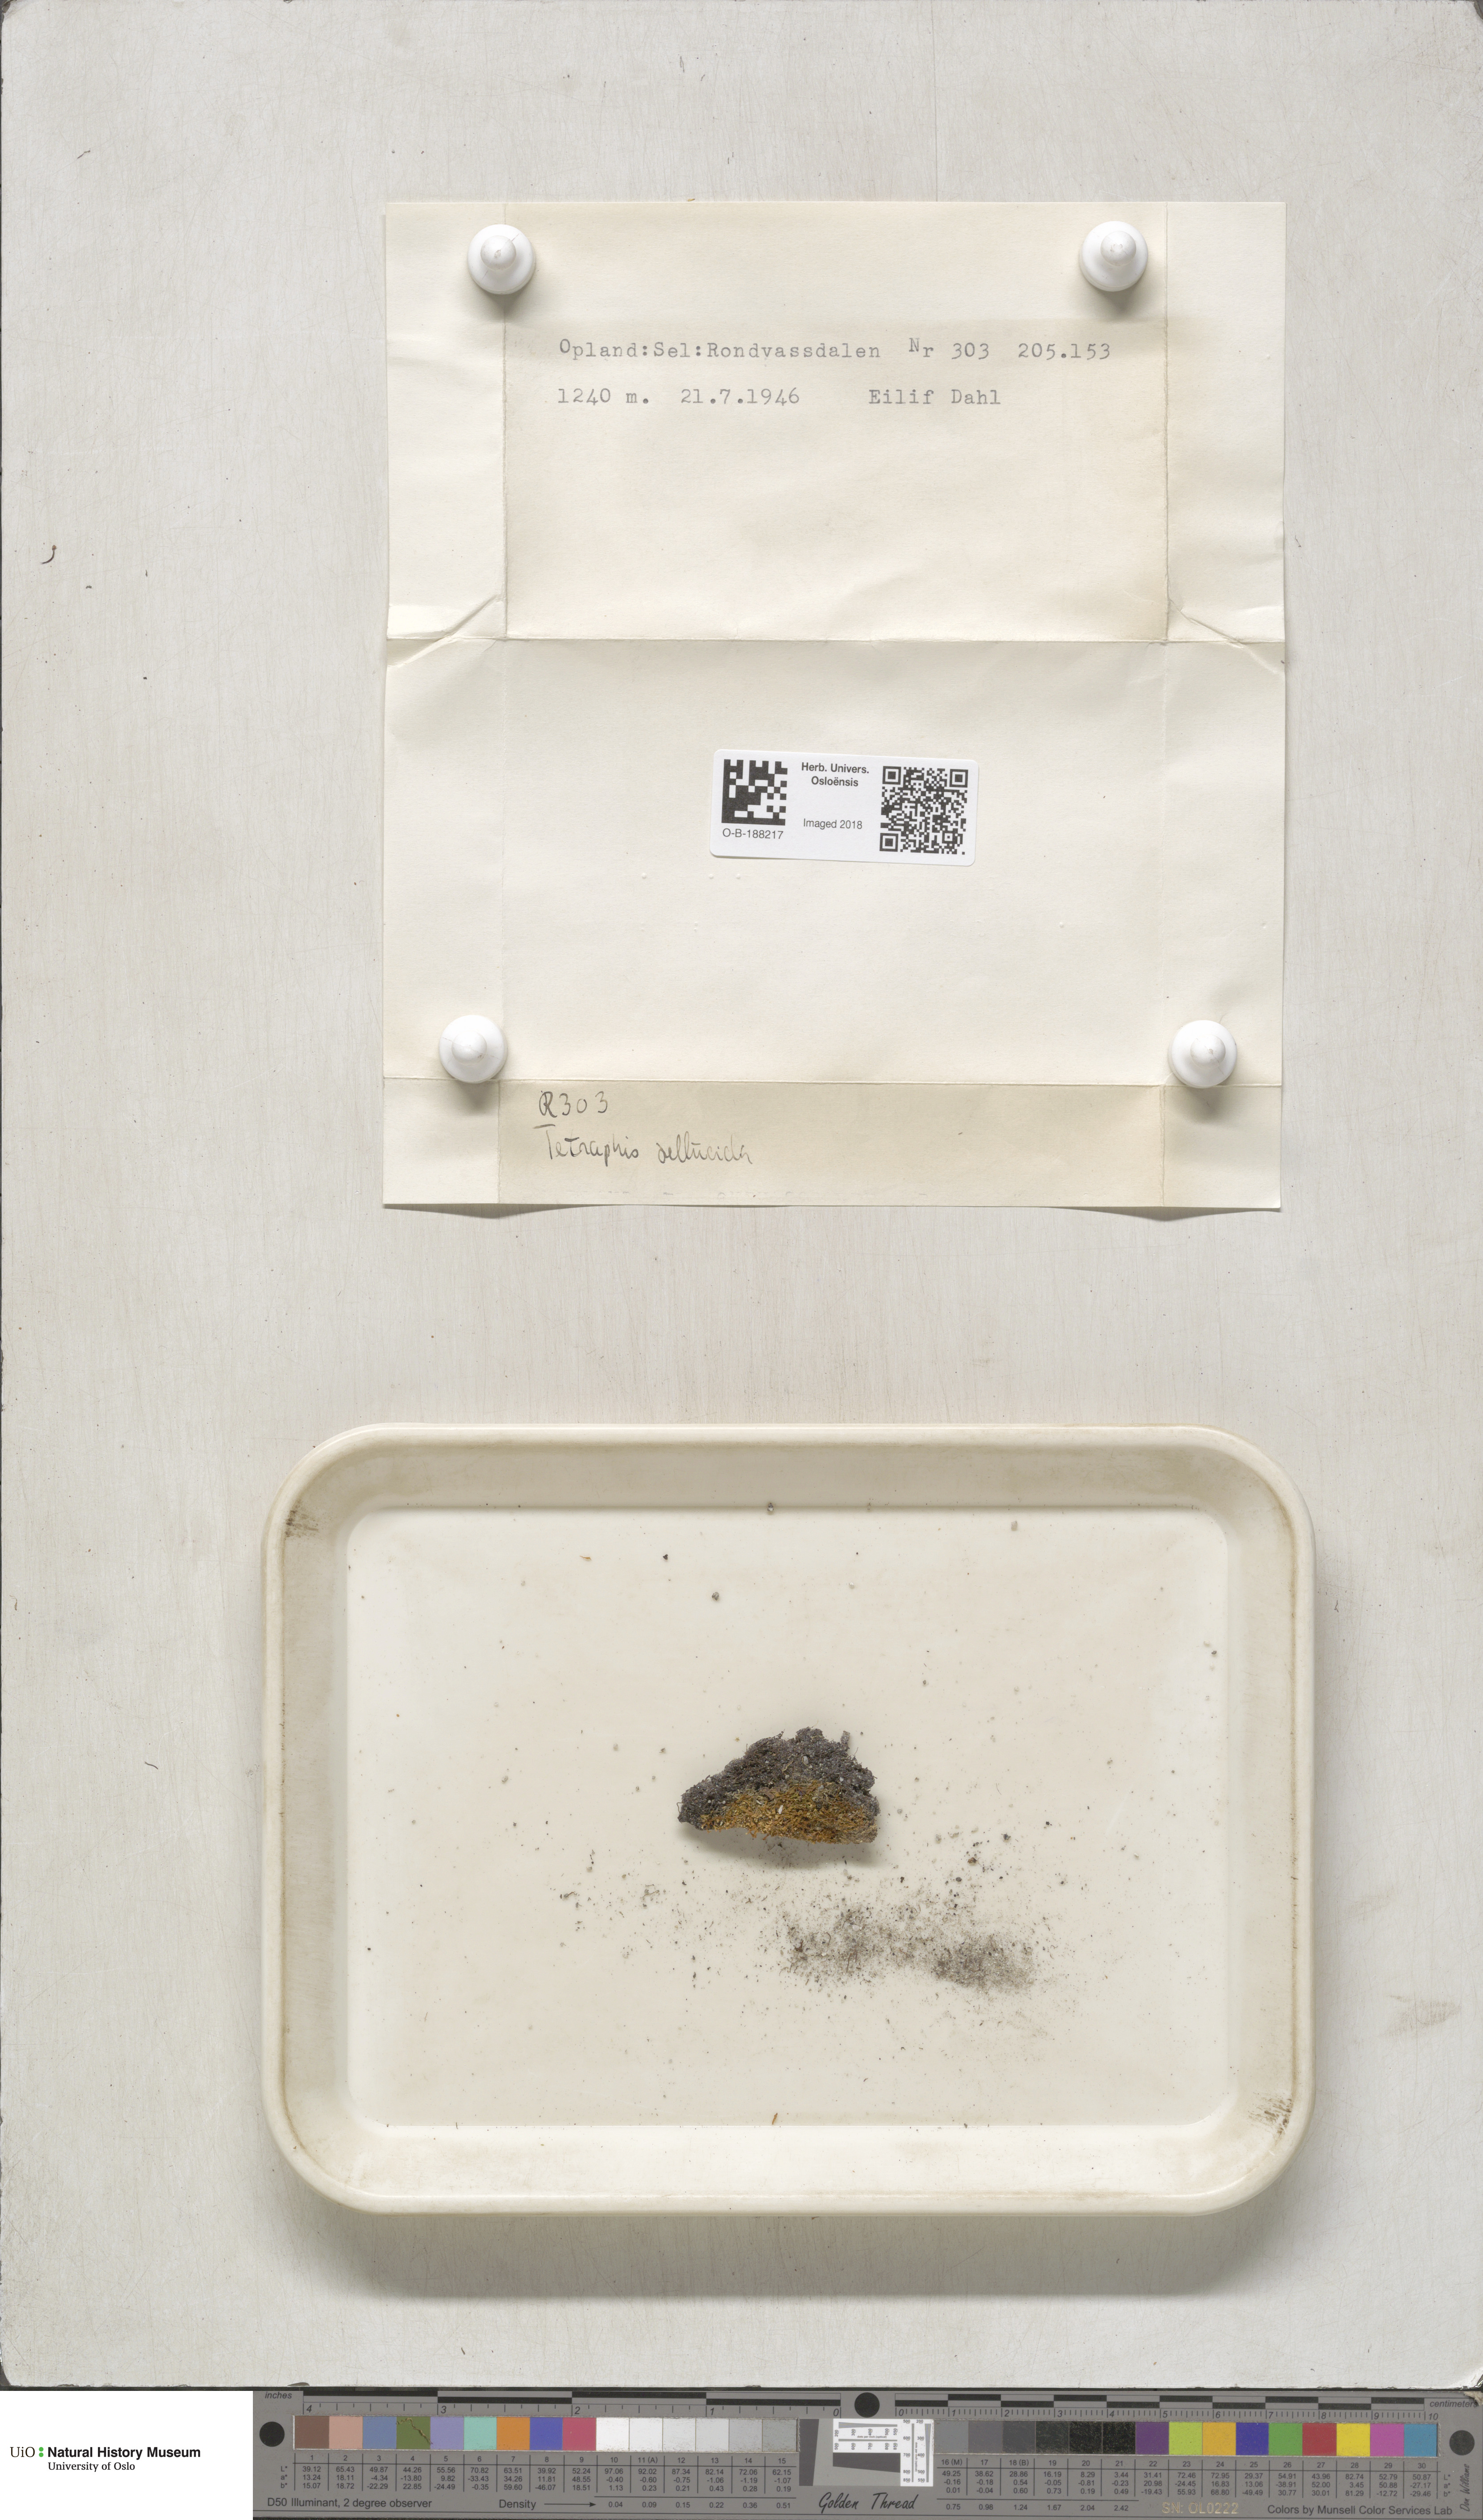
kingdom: Plantae
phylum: Bryophyta
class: Polytrichopsida
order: Tetraphidales
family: Tetraphidaceae
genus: Tetraphis
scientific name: Tetraphis pellucida
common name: Common four-toothed moss
